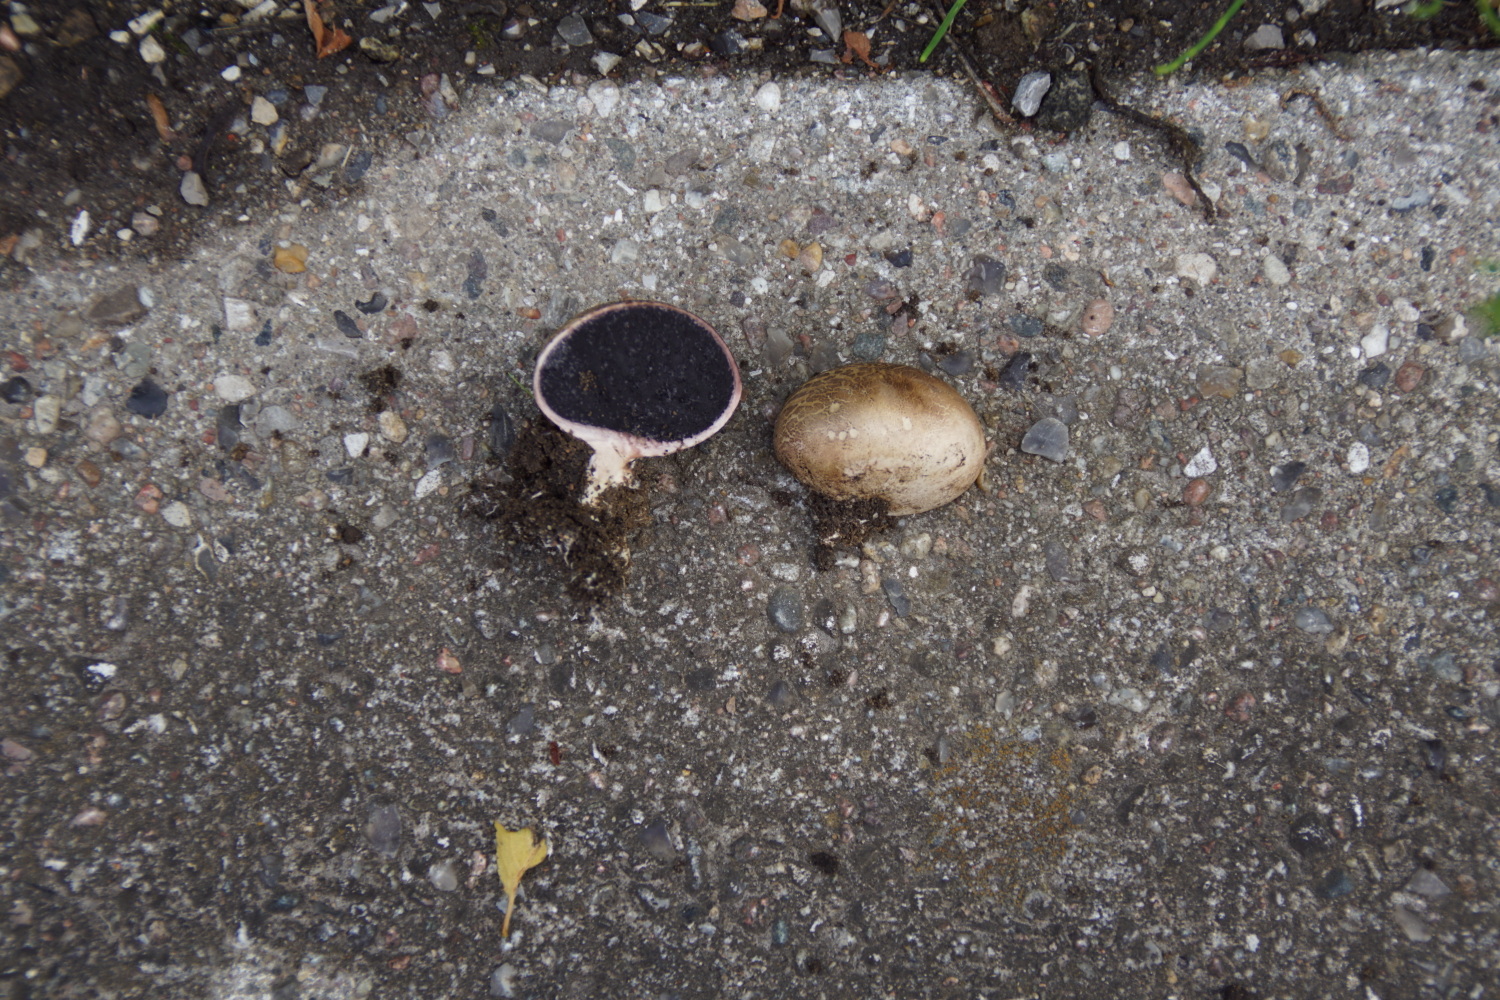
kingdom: Fungi
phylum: Basidiomycota
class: Agaricomycetes
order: Boletales
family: Sclerodermataceae
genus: Scleroderma
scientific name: Scleroderma
